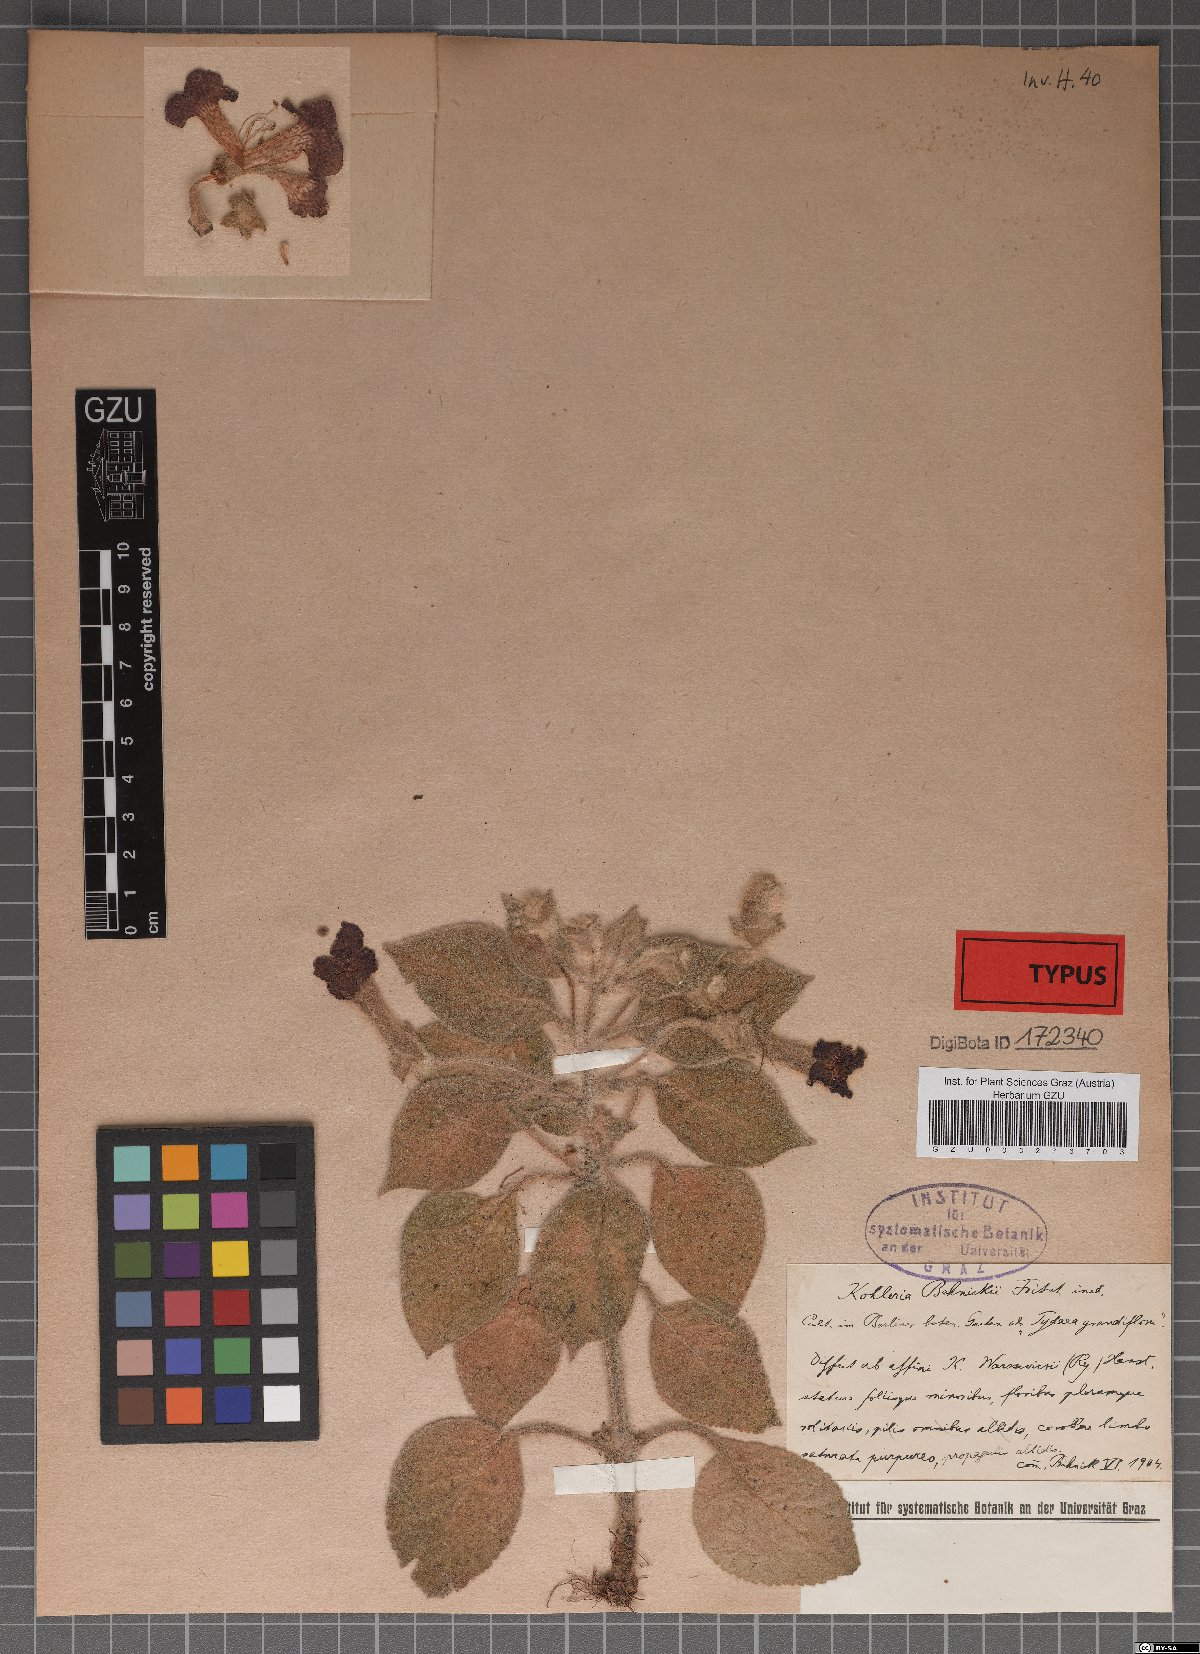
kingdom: Plantae
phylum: Tracheophyta
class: Magnoliopsida
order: Lamiales
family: Gesneriaceae
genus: Kohleria
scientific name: Kohleria behnickii
